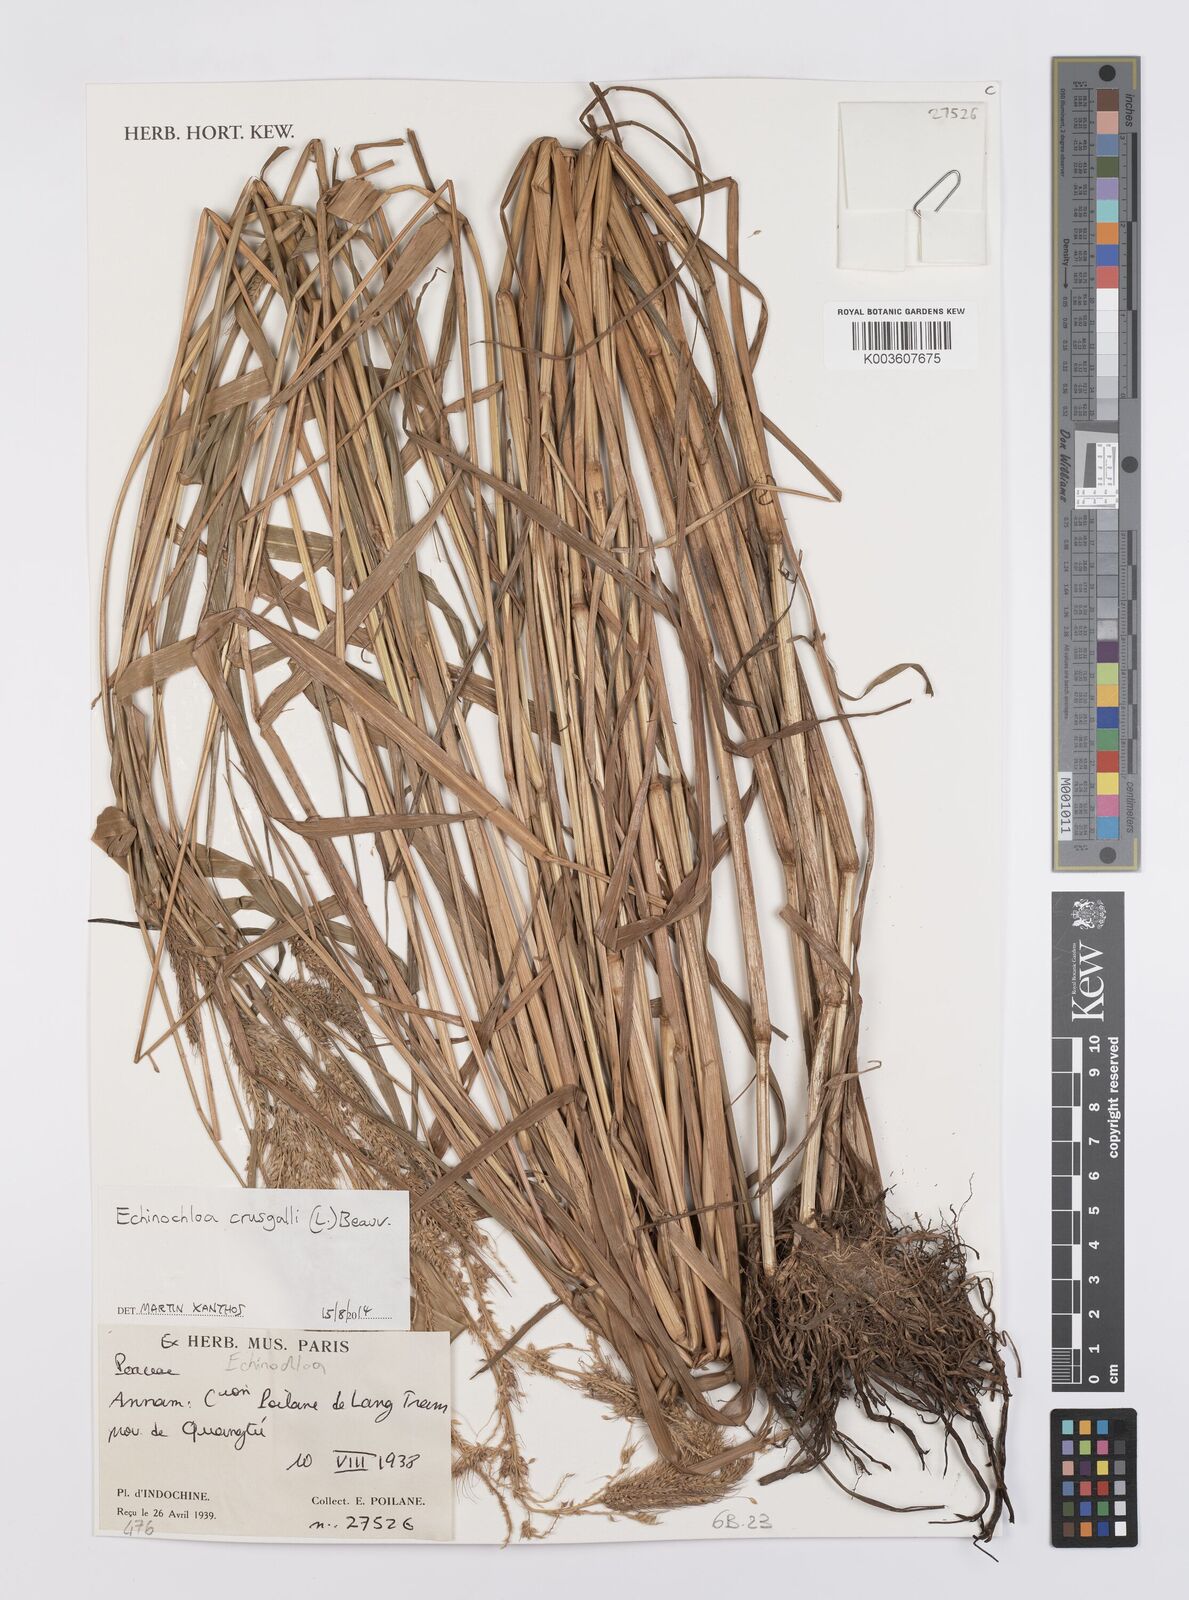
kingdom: Plantae
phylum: Tracheophyta
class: Liliopsida
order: Poales
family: Poaceae
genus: Echinochloa
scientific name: Echinochloa crus-galli
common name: Cockspur
